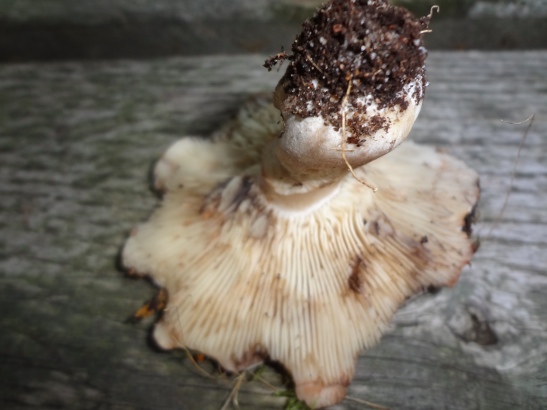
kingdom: Fungi
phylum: Basidiomycota
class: Agaricomycetes
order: Russulales
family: Russulaceae
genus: Russula
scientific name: Russula densifolia
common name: tætbladet skørhat
